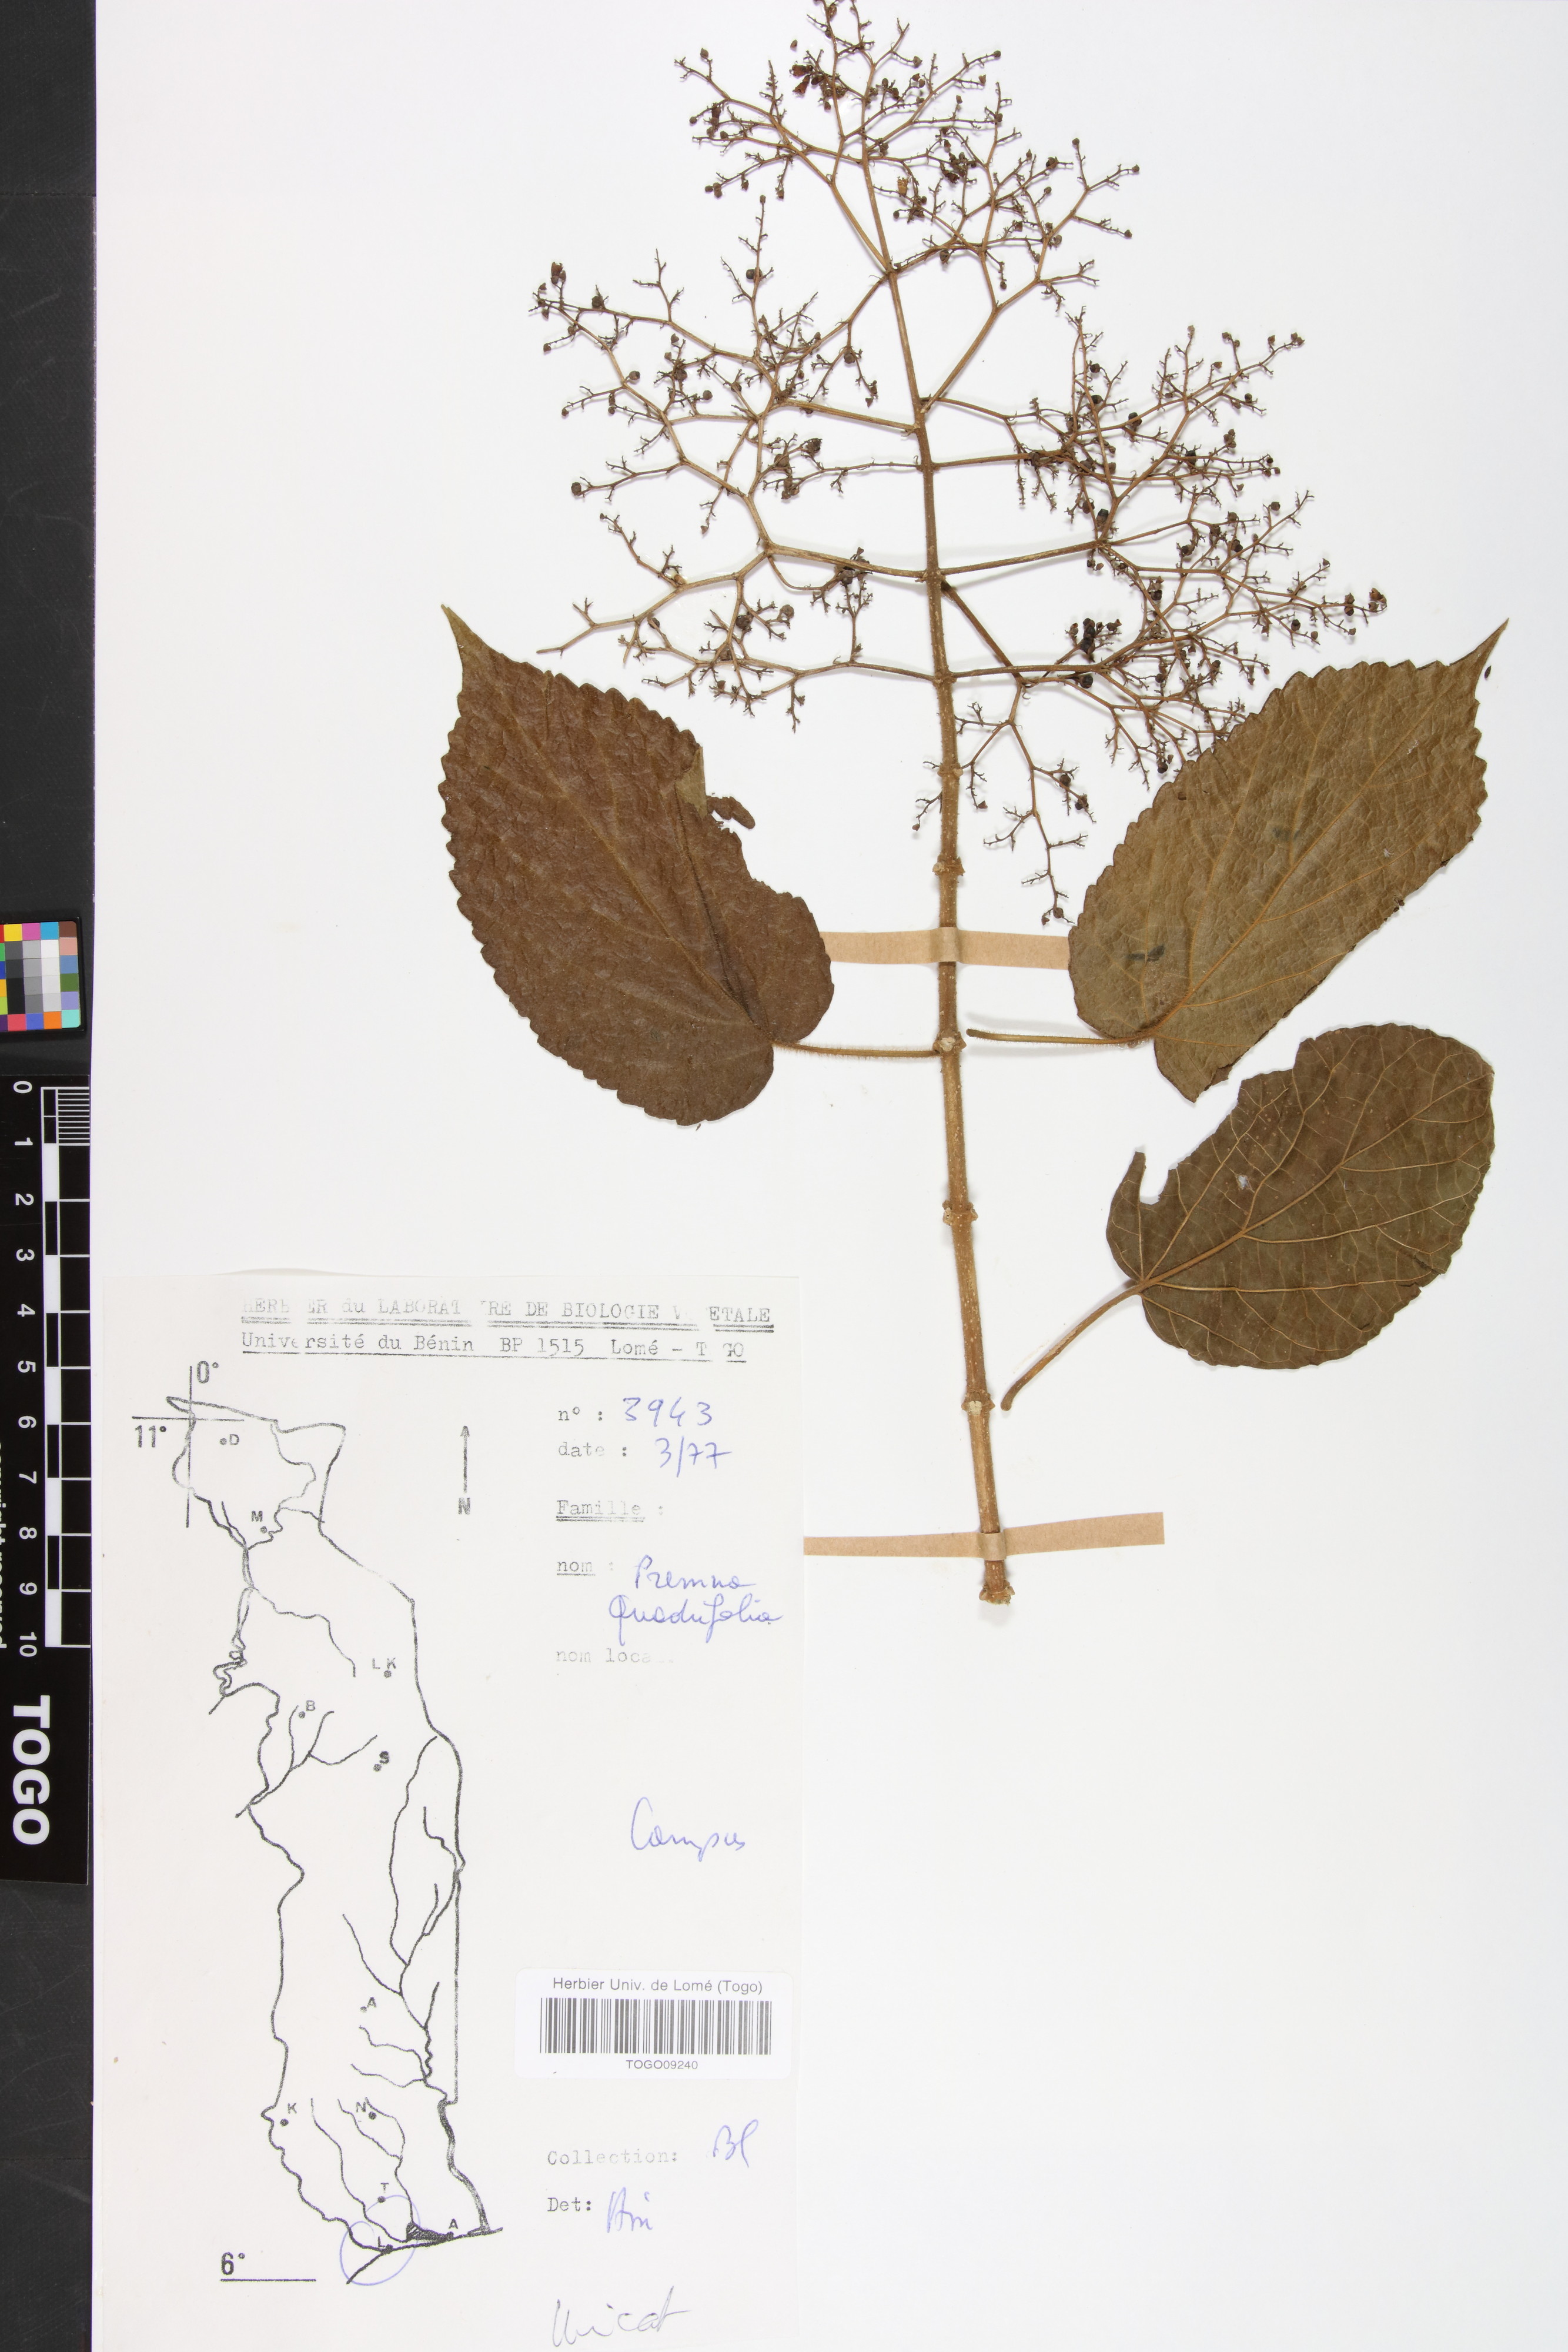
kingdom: Plantae
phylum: Tracheophyta
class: Magnoliopsida
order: Lamiales
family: Lamiaceae
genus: Premna
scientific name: Premna quadrifolia
